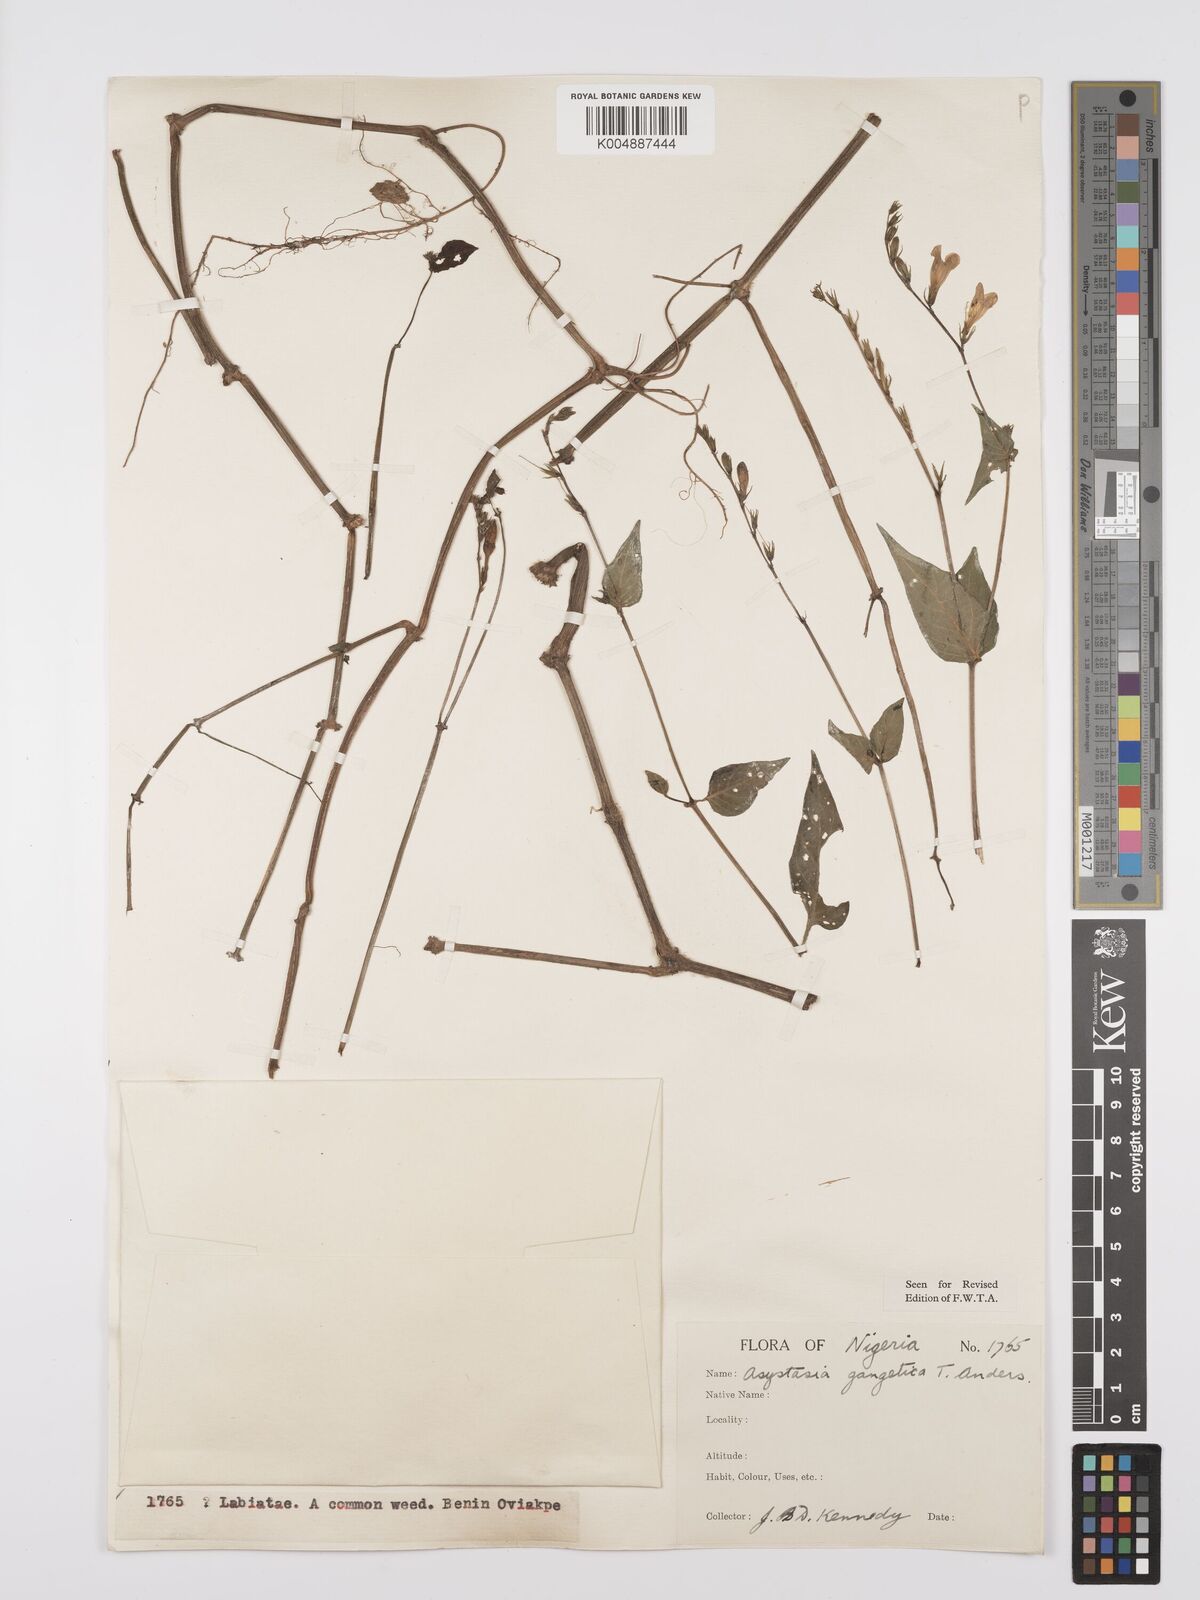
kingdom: Plantae
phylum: Tracheophyta
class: Magnoliopsida
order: Lamiales
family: Acanthaceae
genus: Asystasia
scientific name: Asystasia gangetica
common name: Chinese violet
